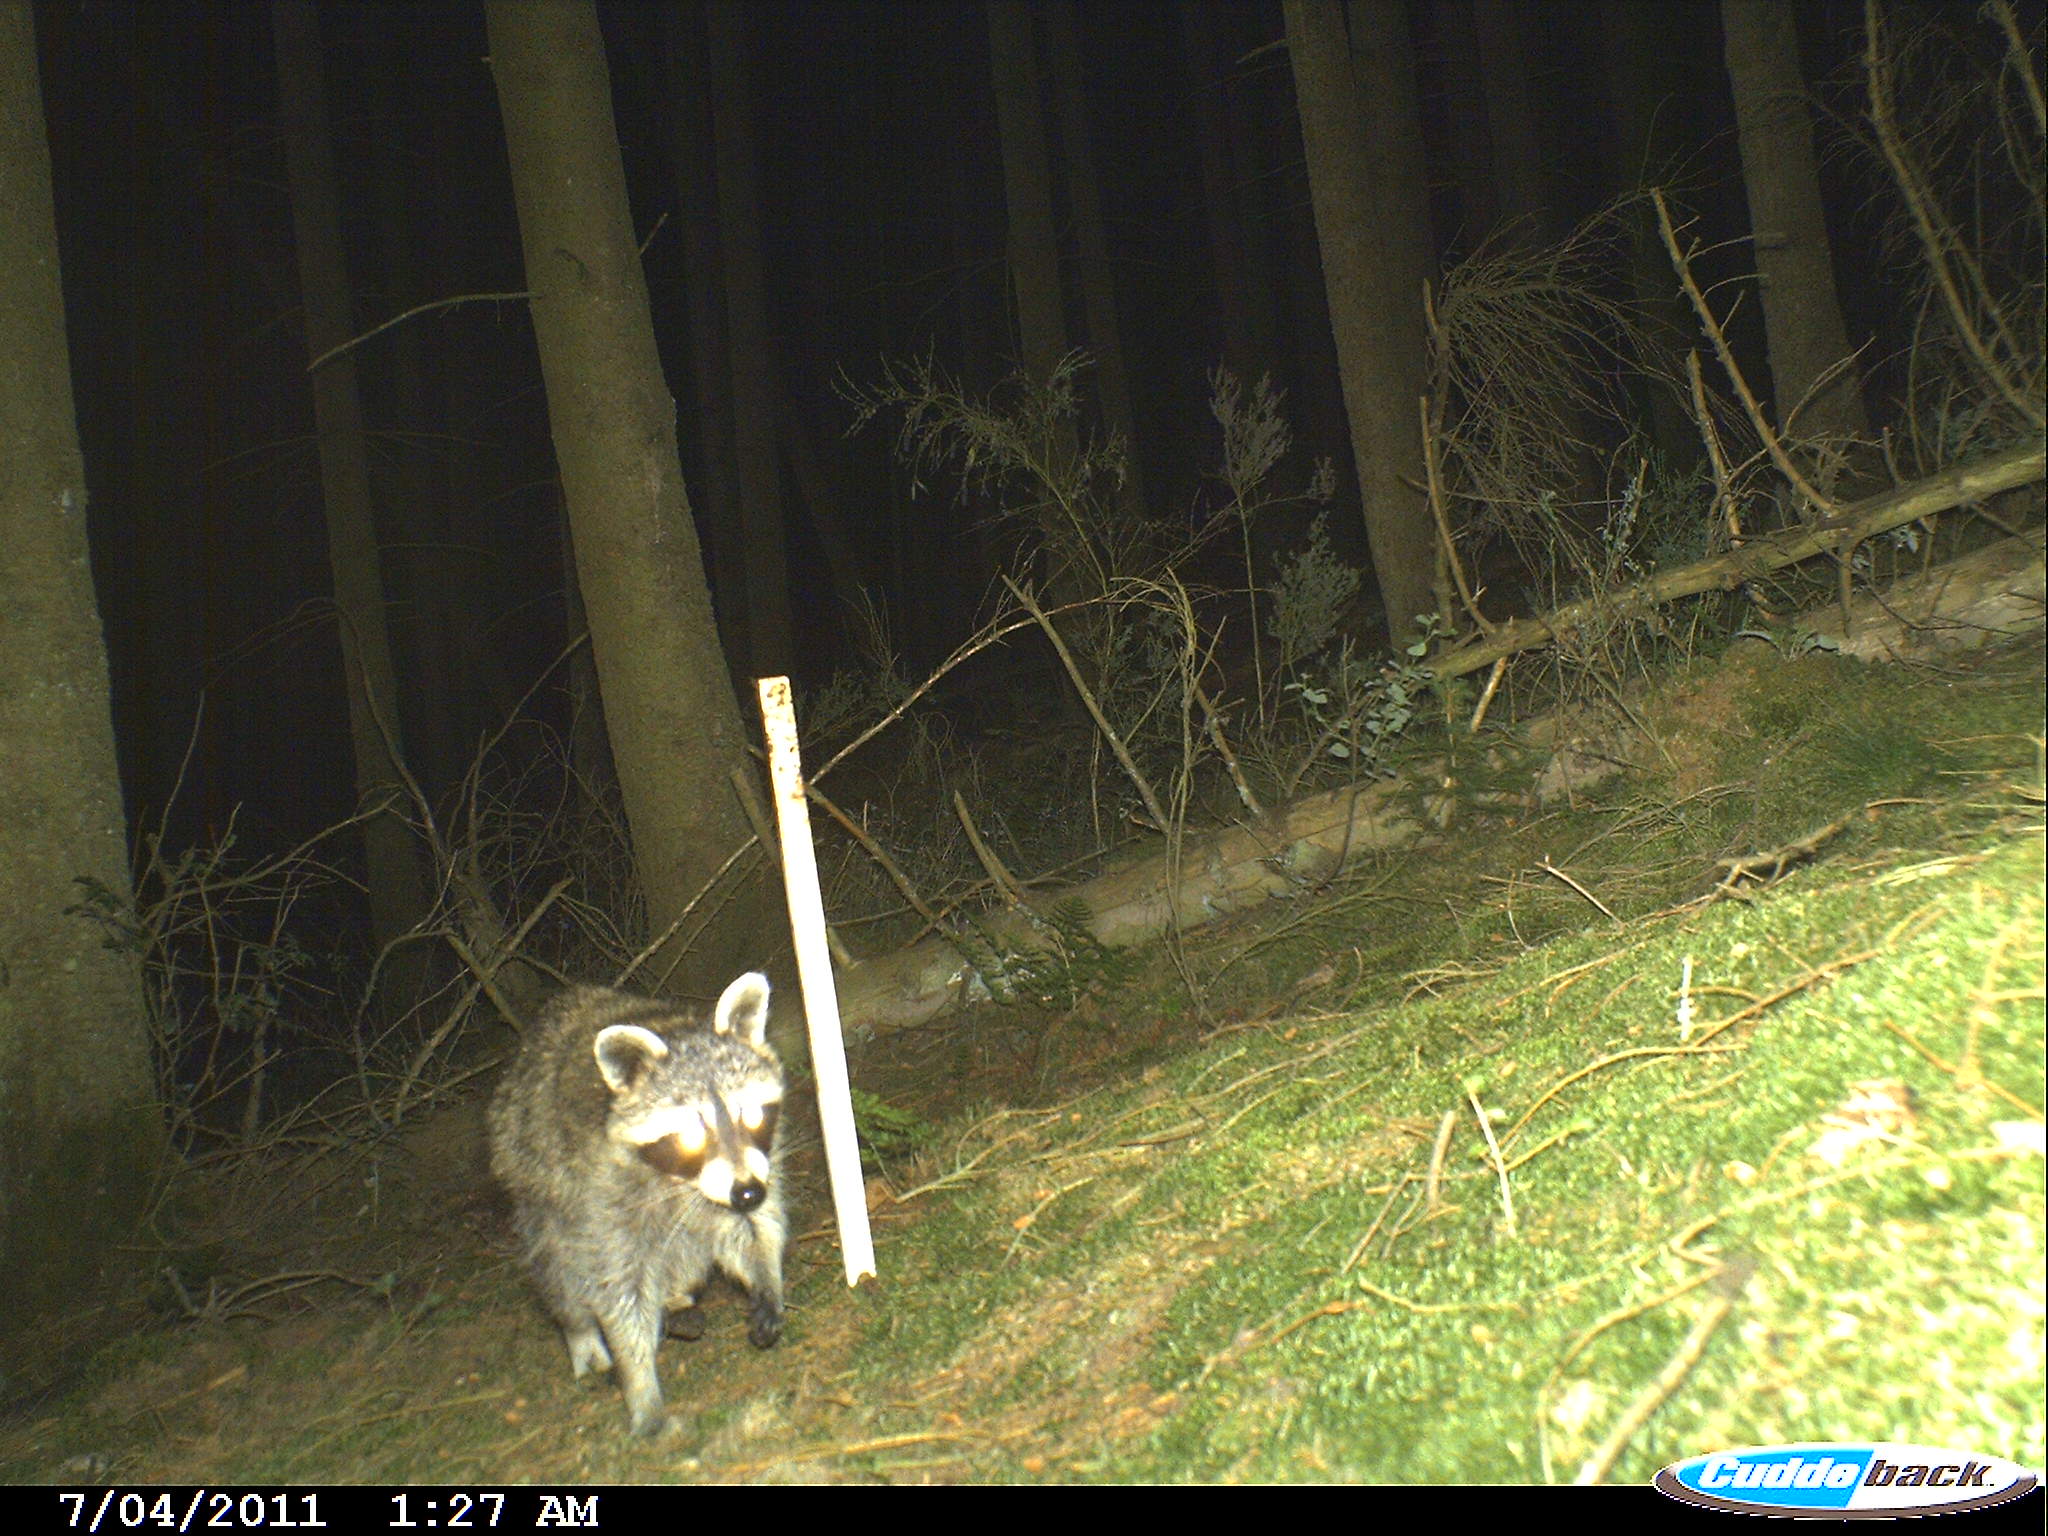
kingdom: Animalia
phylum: Chordata
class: Mammalia
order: Carnivora
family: Procyonidae
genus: Procyon
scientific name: Procyon lotor
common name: Raccoon
